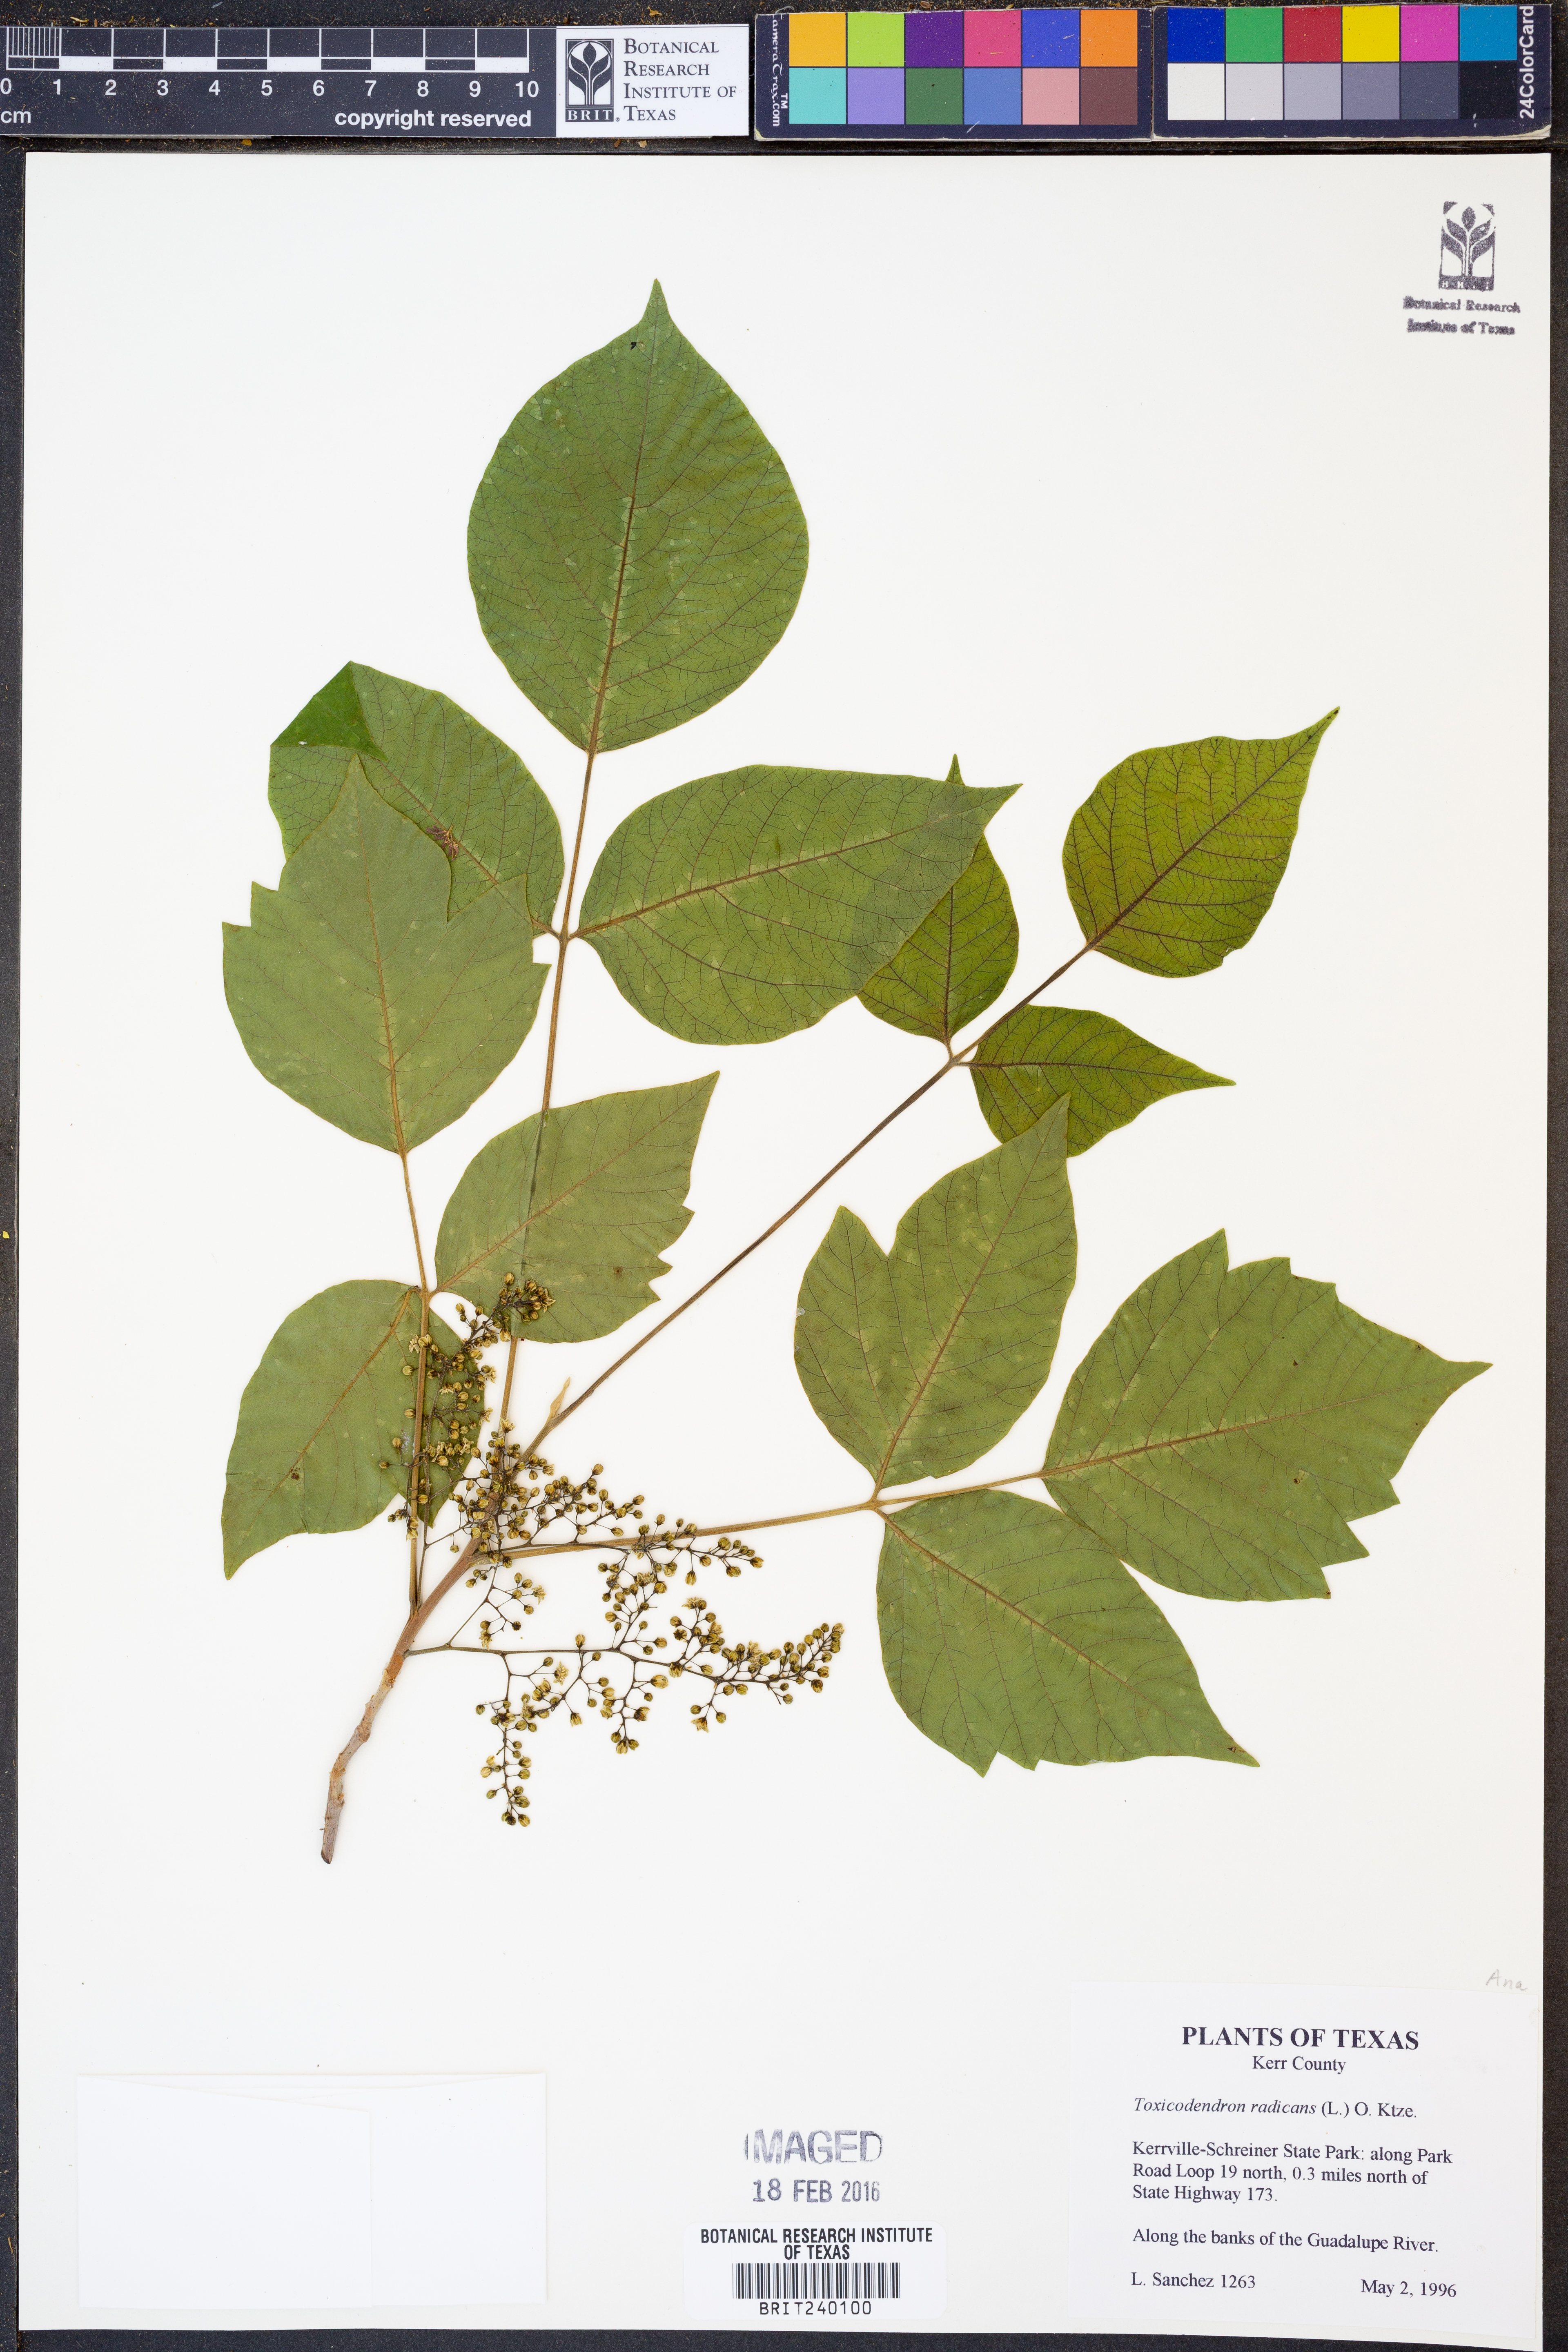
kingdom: Plantae
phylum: Tracheophyta
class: Magnoliopsida
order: Sapindales
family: Anacardiaceae
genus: Toxicodendron
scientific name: Toxicodendron radicans
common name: Poison ivy
